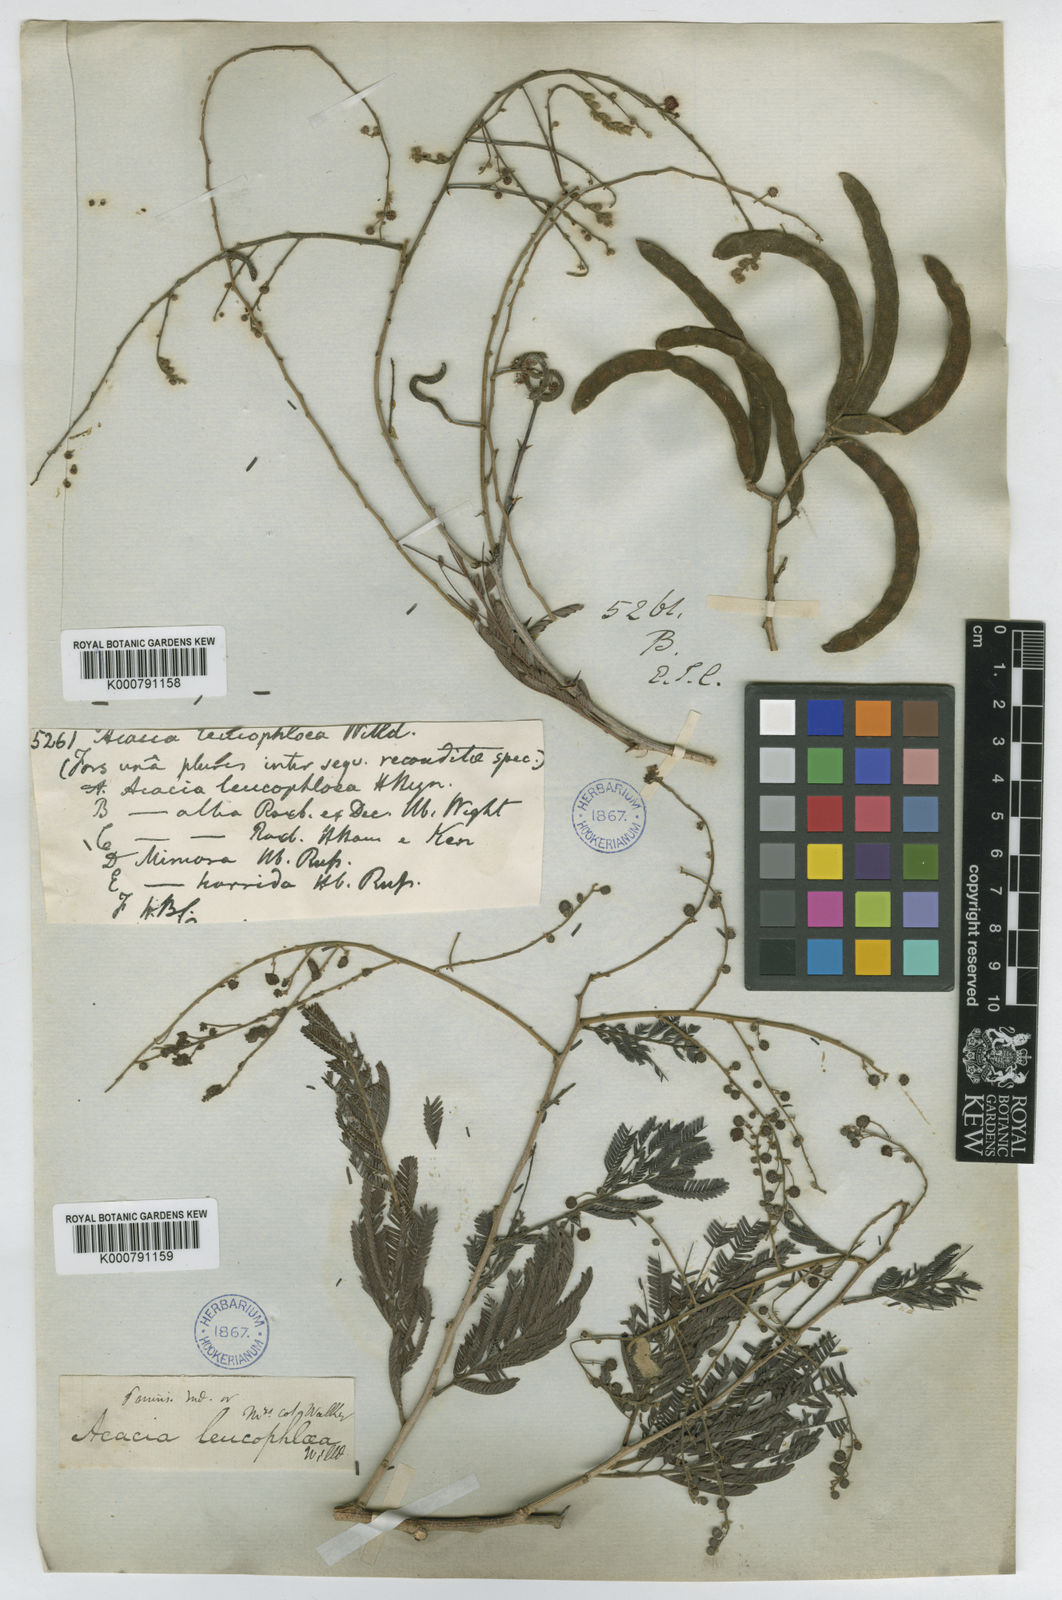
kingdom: Plantae
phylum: Tracheophyta
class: Magnoliopsida
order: Fabales
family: Fabaceae
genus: Vachellia
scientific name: Vachellia leucophloea
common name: Distiller's acacia
